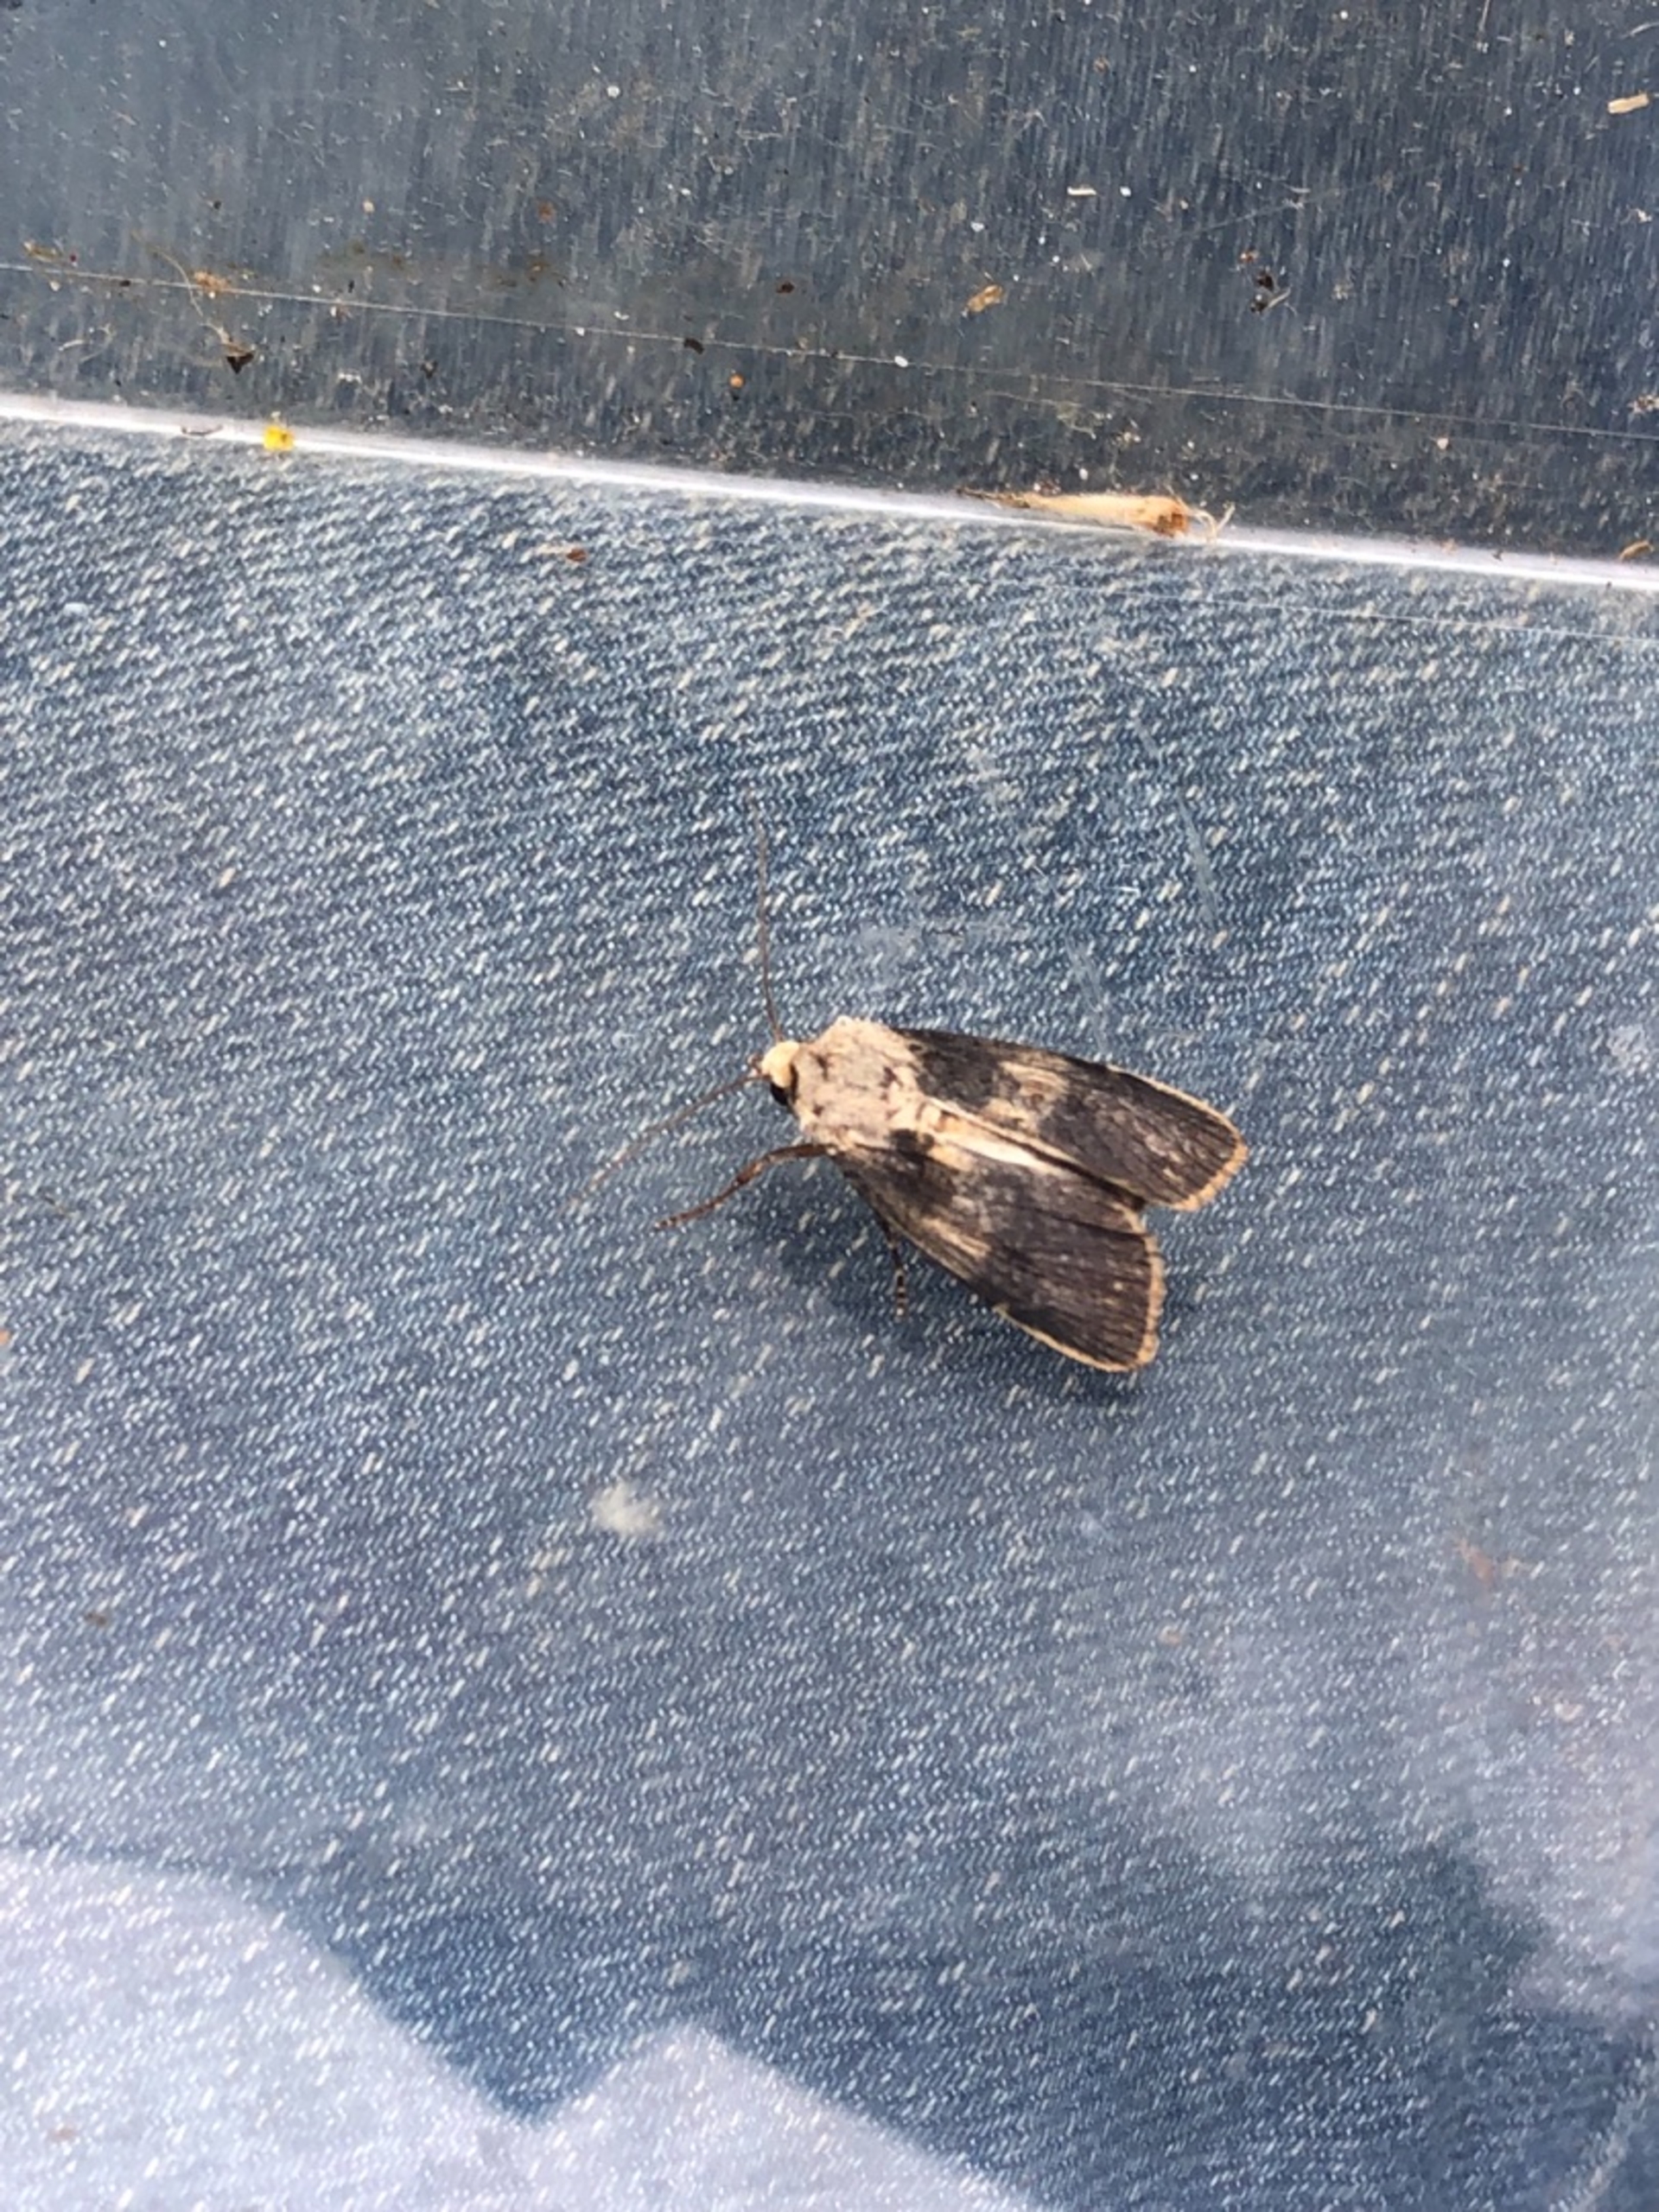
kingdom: Animalia
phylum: Arthropoda
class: Insecta
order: Lepidoptera
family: Noctuidae
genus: Agrotis
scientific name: Agrotis puta
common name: Frønnet landmand
